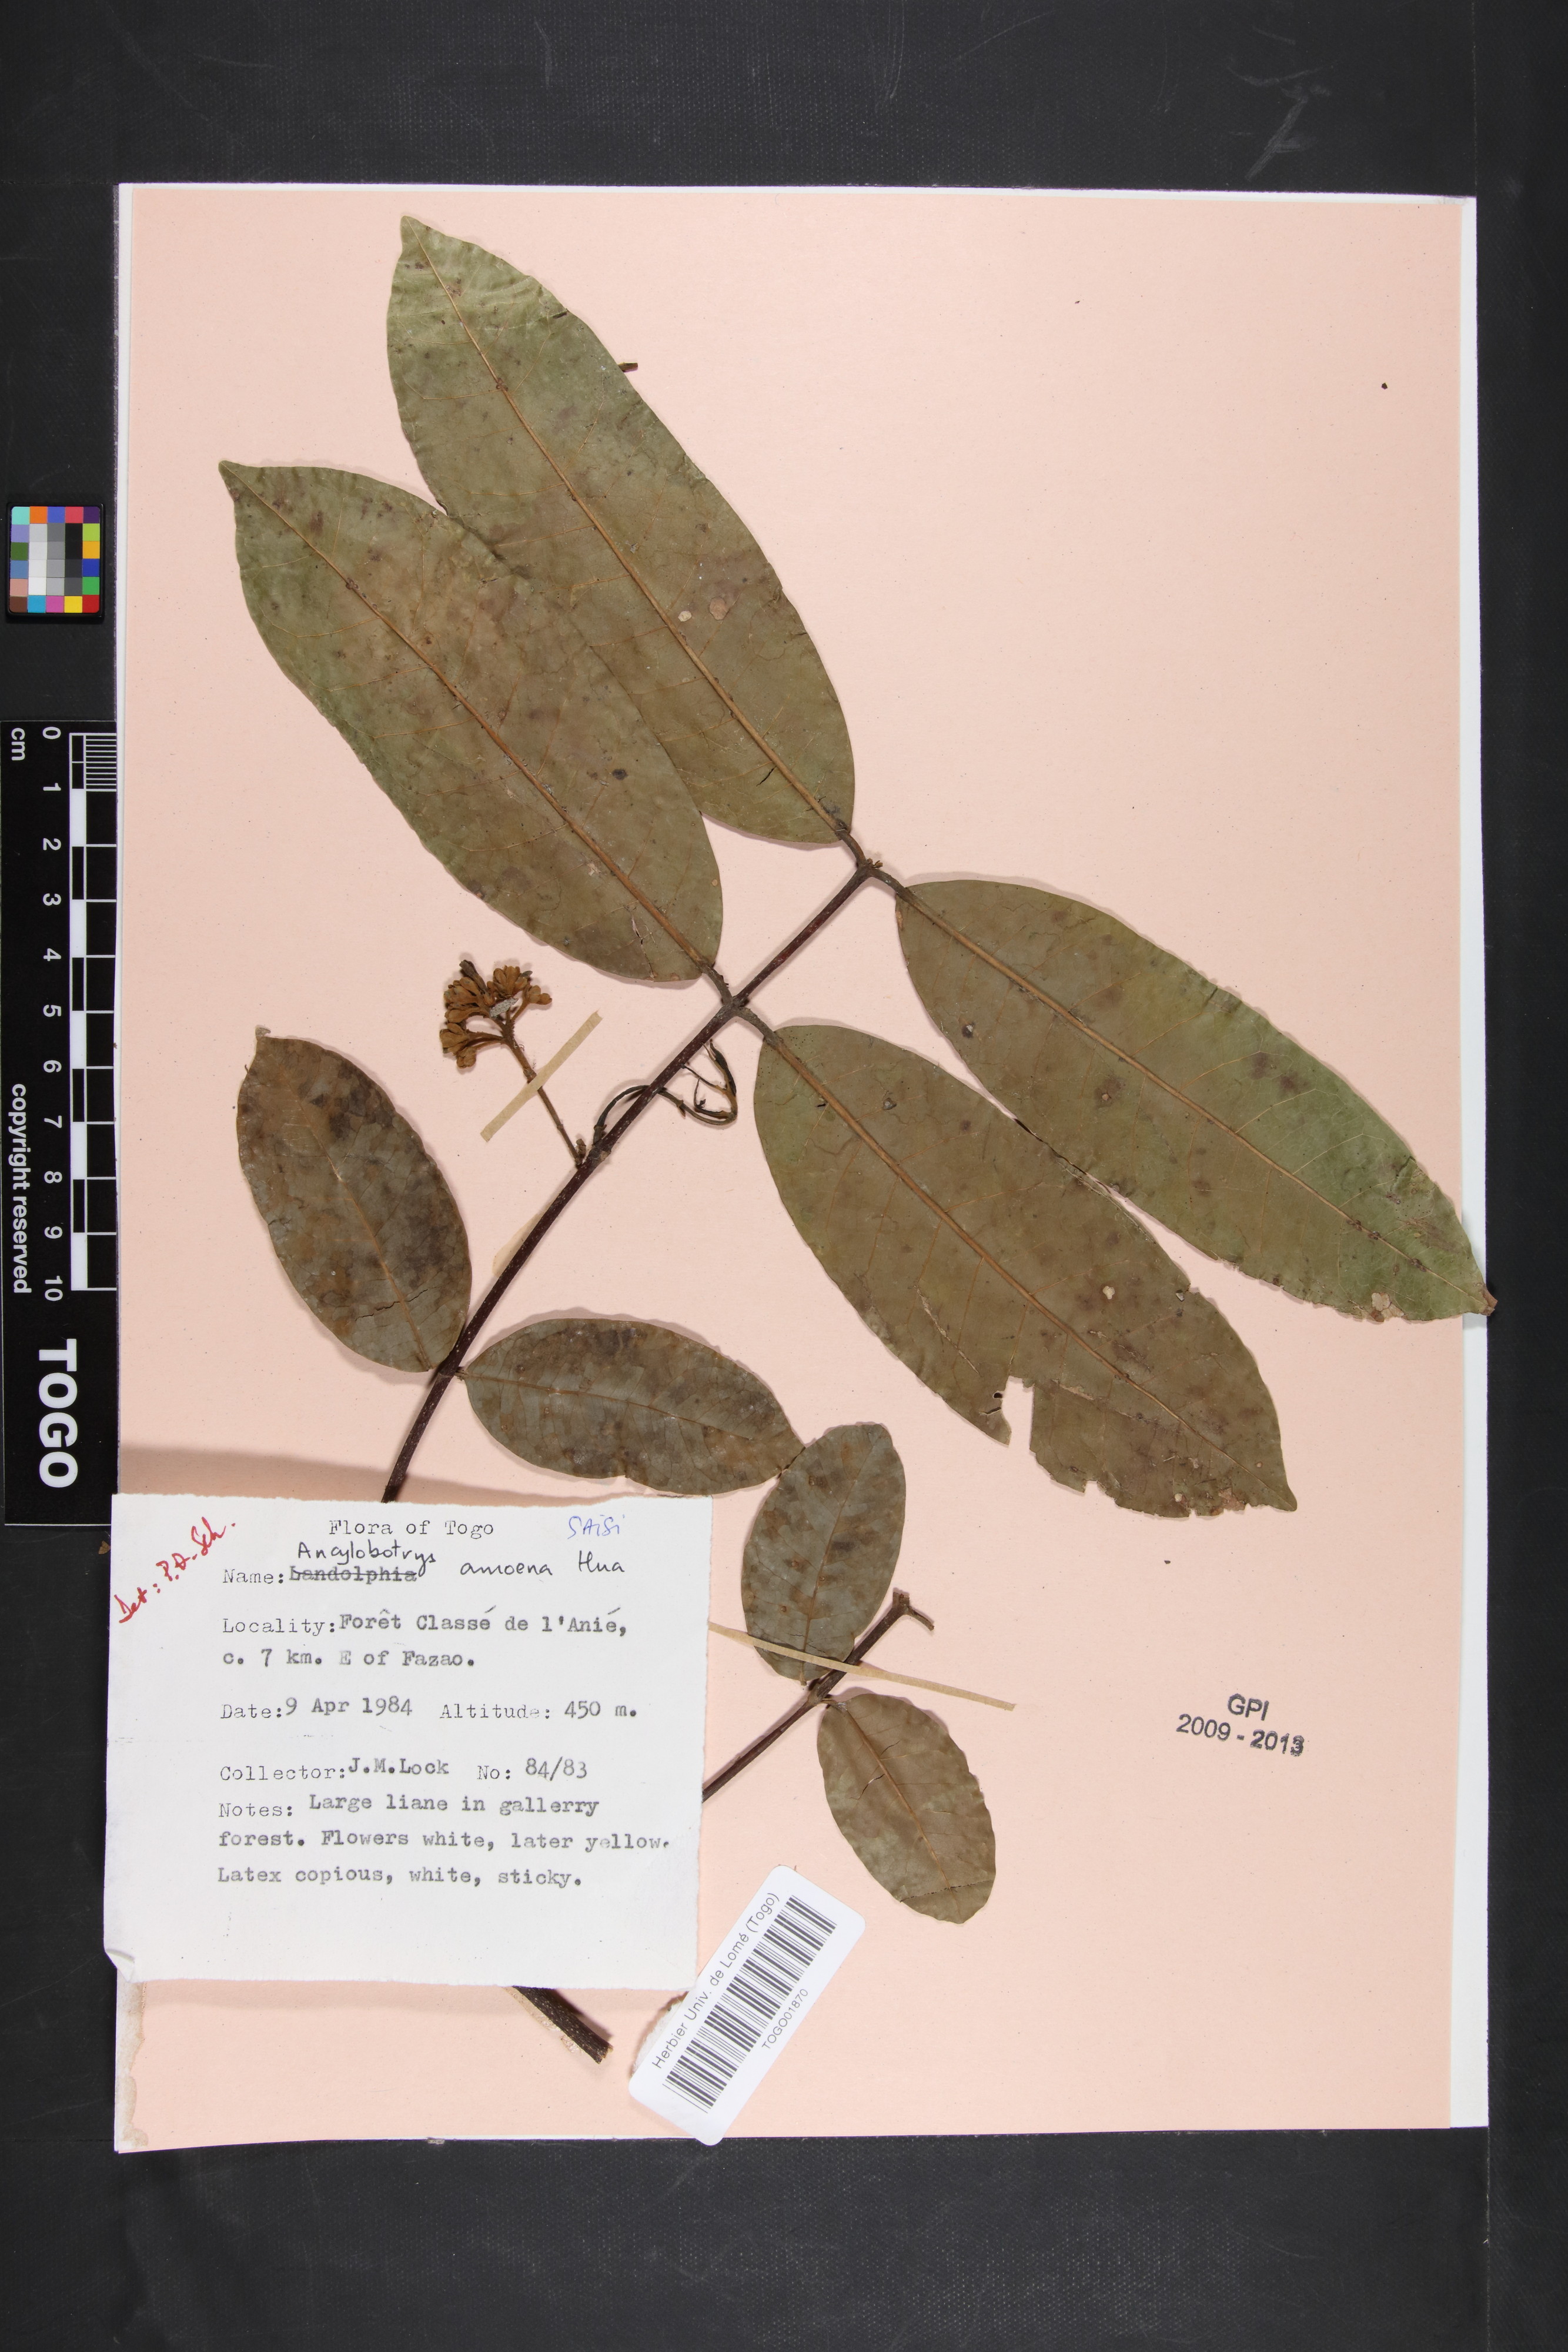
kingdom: Plantae
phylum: Tracheophyta
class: Magnoliopsida
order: Gentianales
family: Apocynaceae
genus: Ancylobothrys
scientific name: Ancylobothrys amoena
